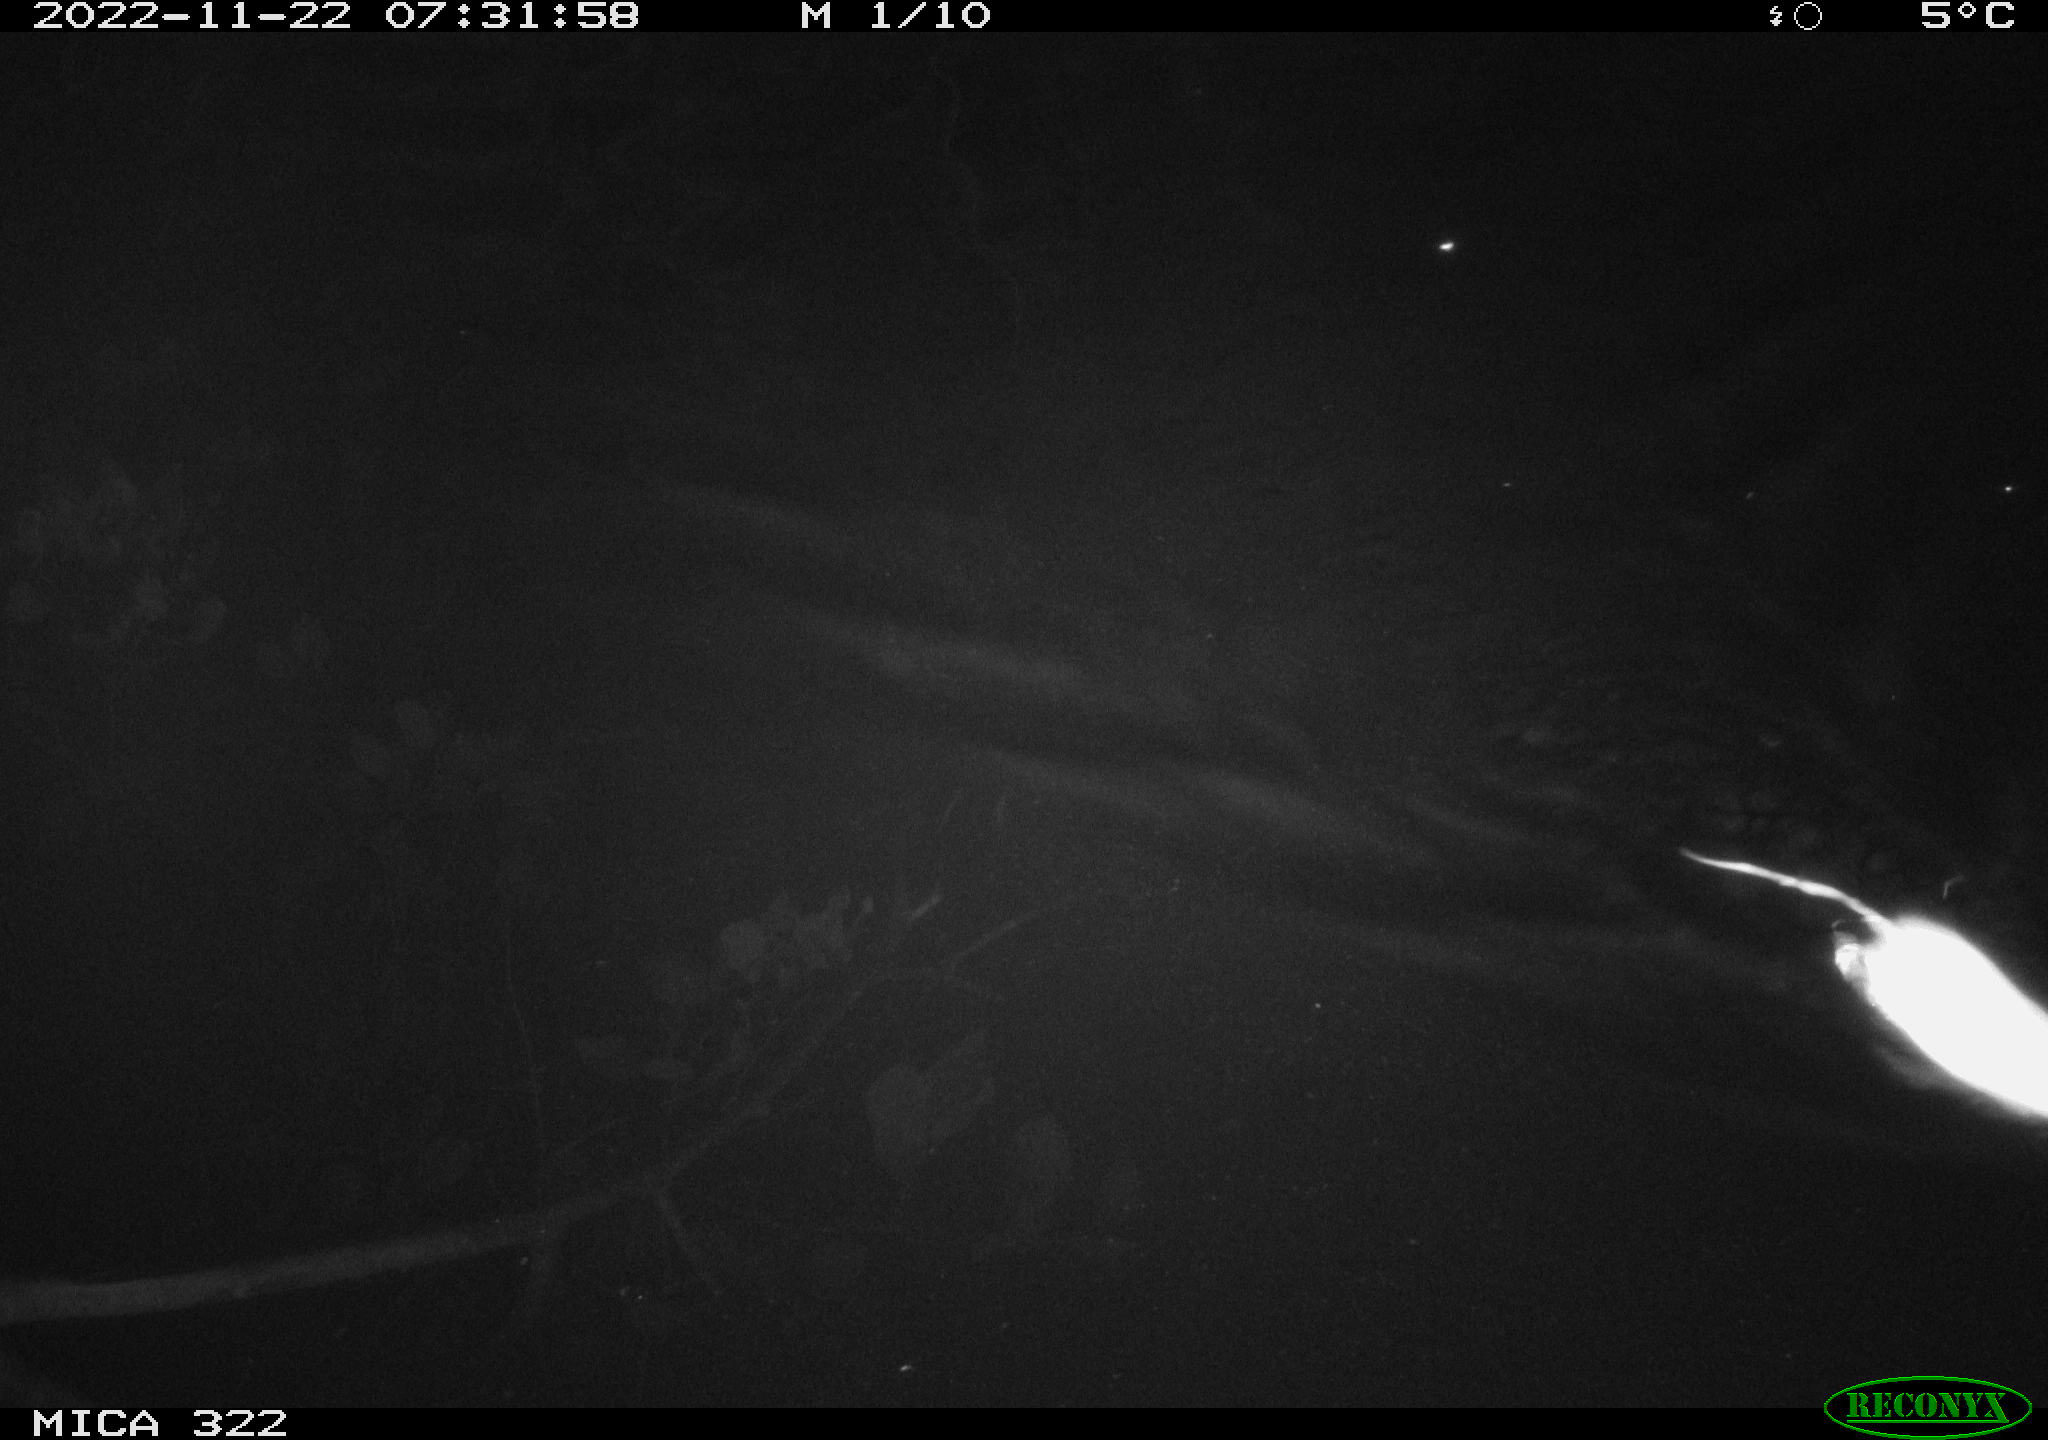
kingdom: Animalia
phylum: Chordata
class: Mammalia
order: Rodentia
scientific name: Rodentia
